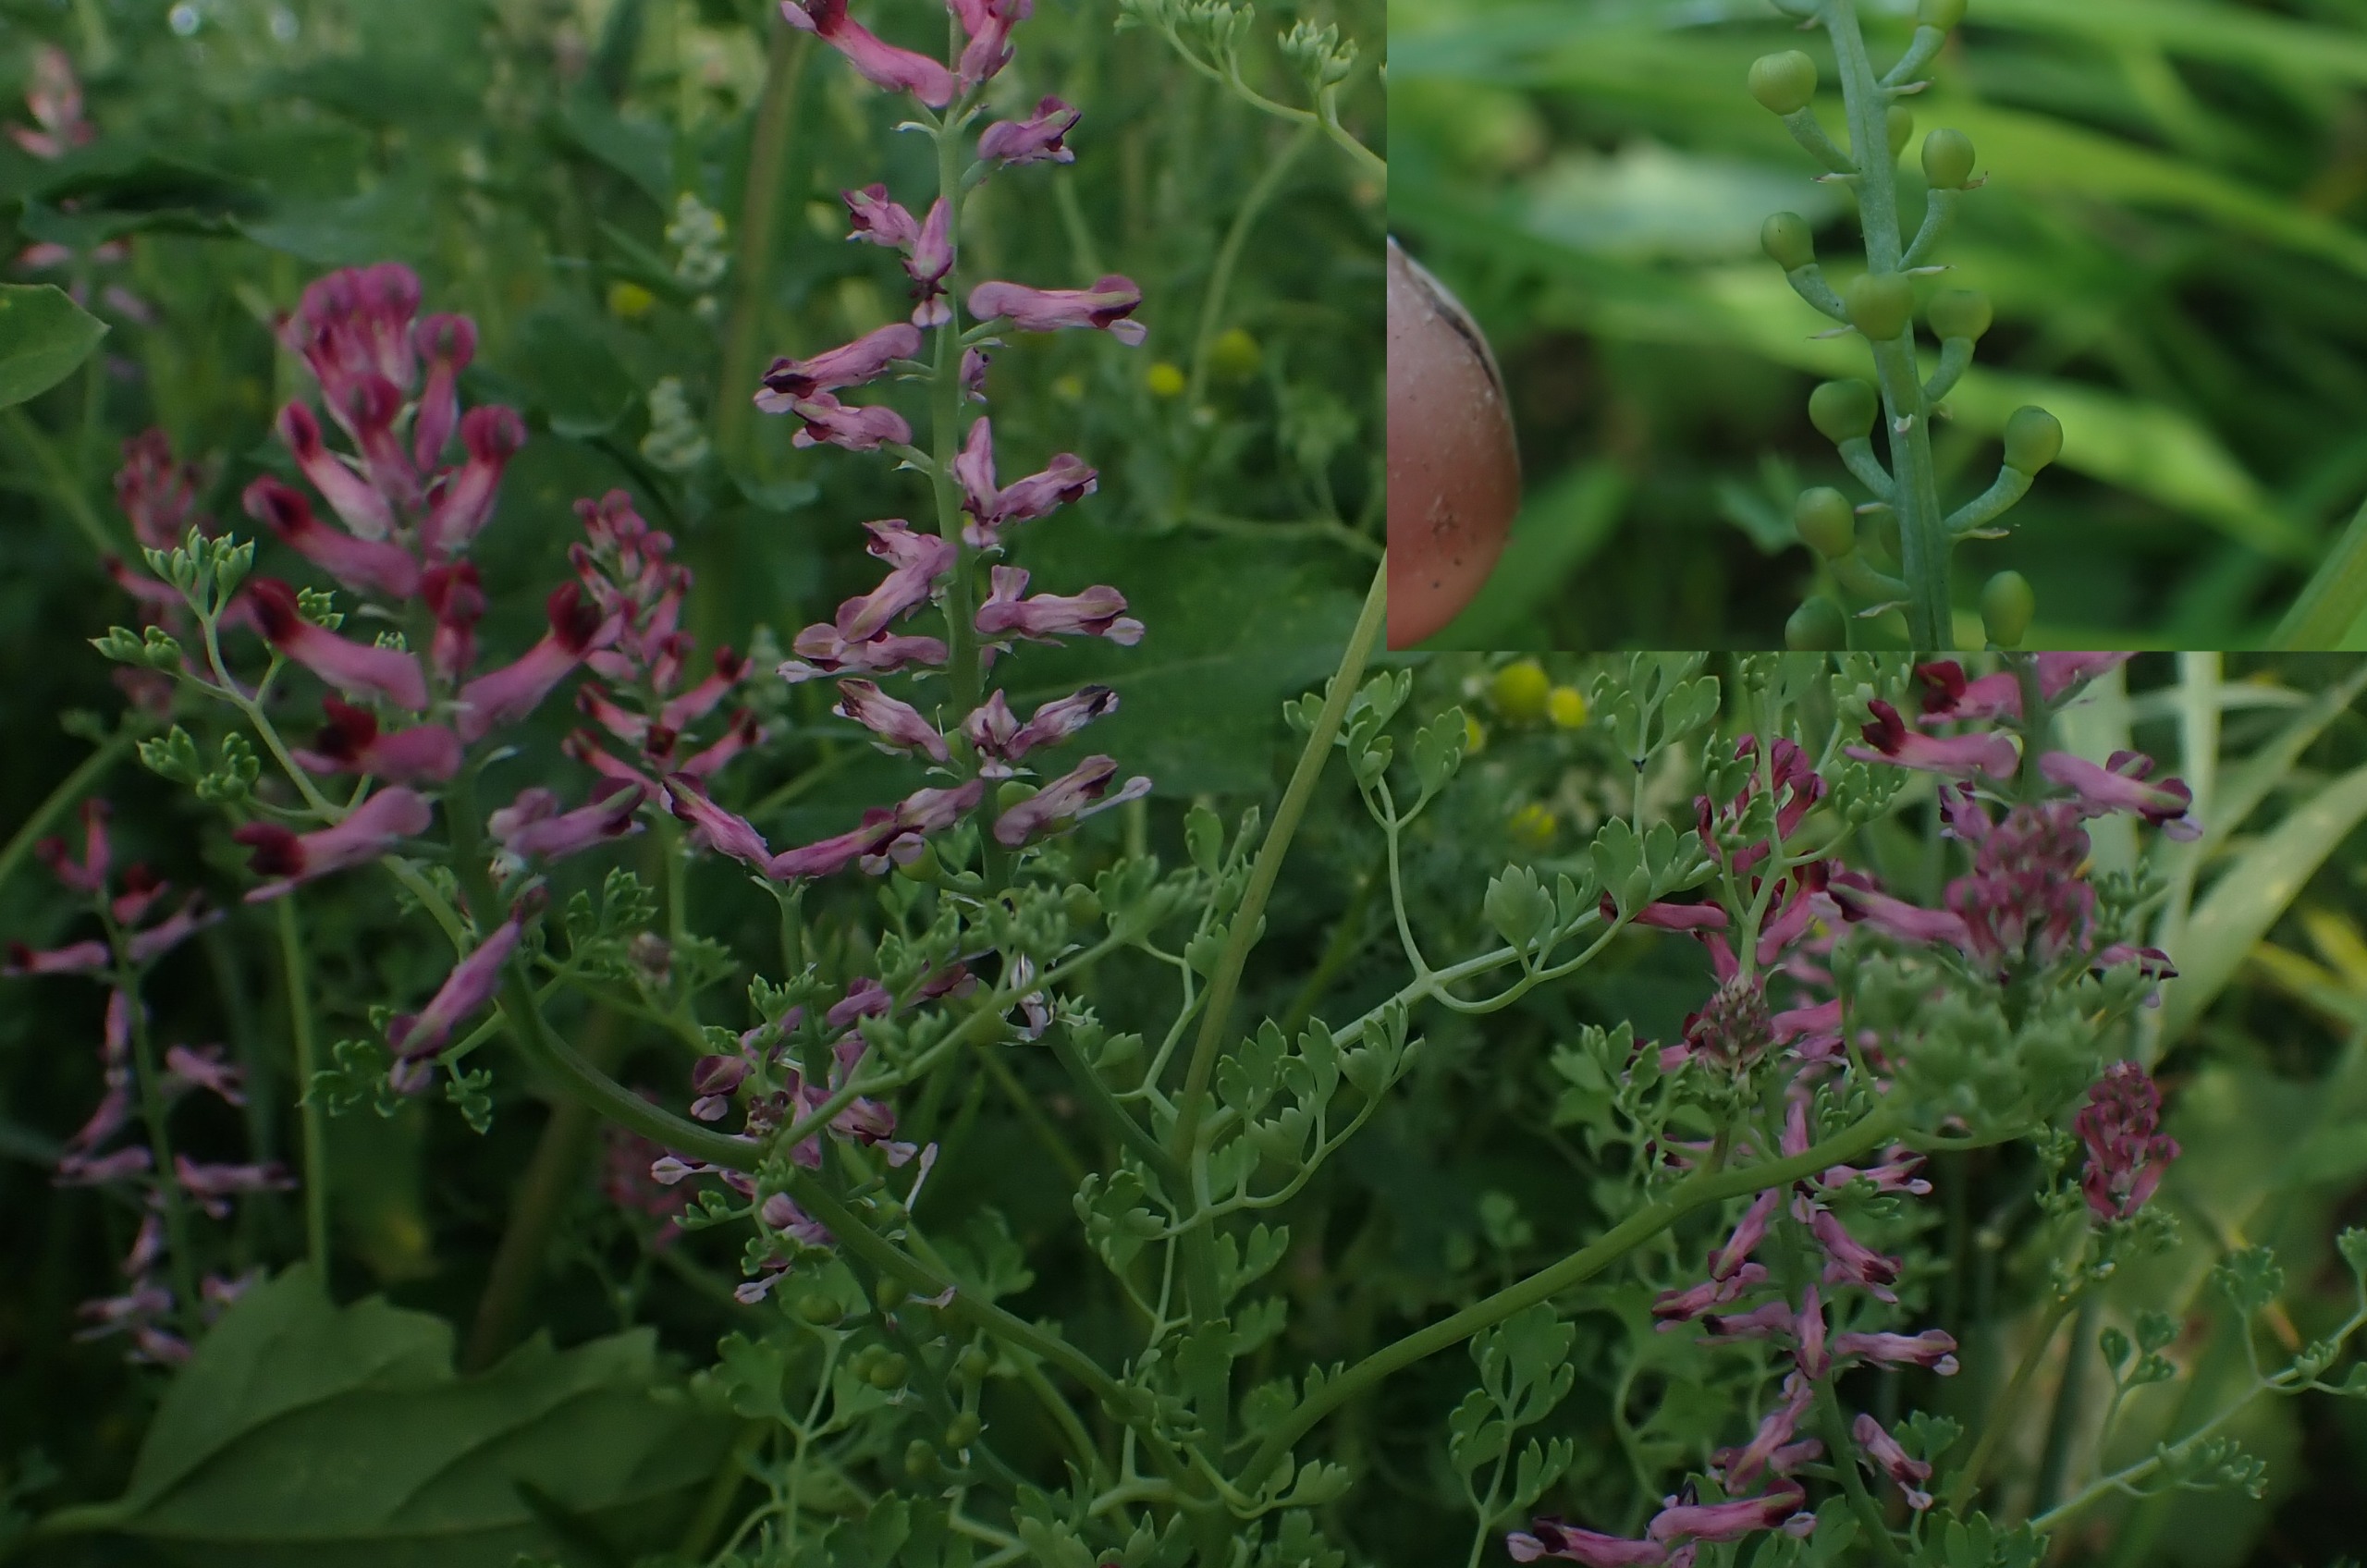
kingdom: Plantae
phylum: Tracheophyta
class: Magnoliopsida
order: Ranunculales
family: Papaveraceae
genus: Fumaria
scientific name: Fumaria officinalis
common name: Læge-jordrøg
